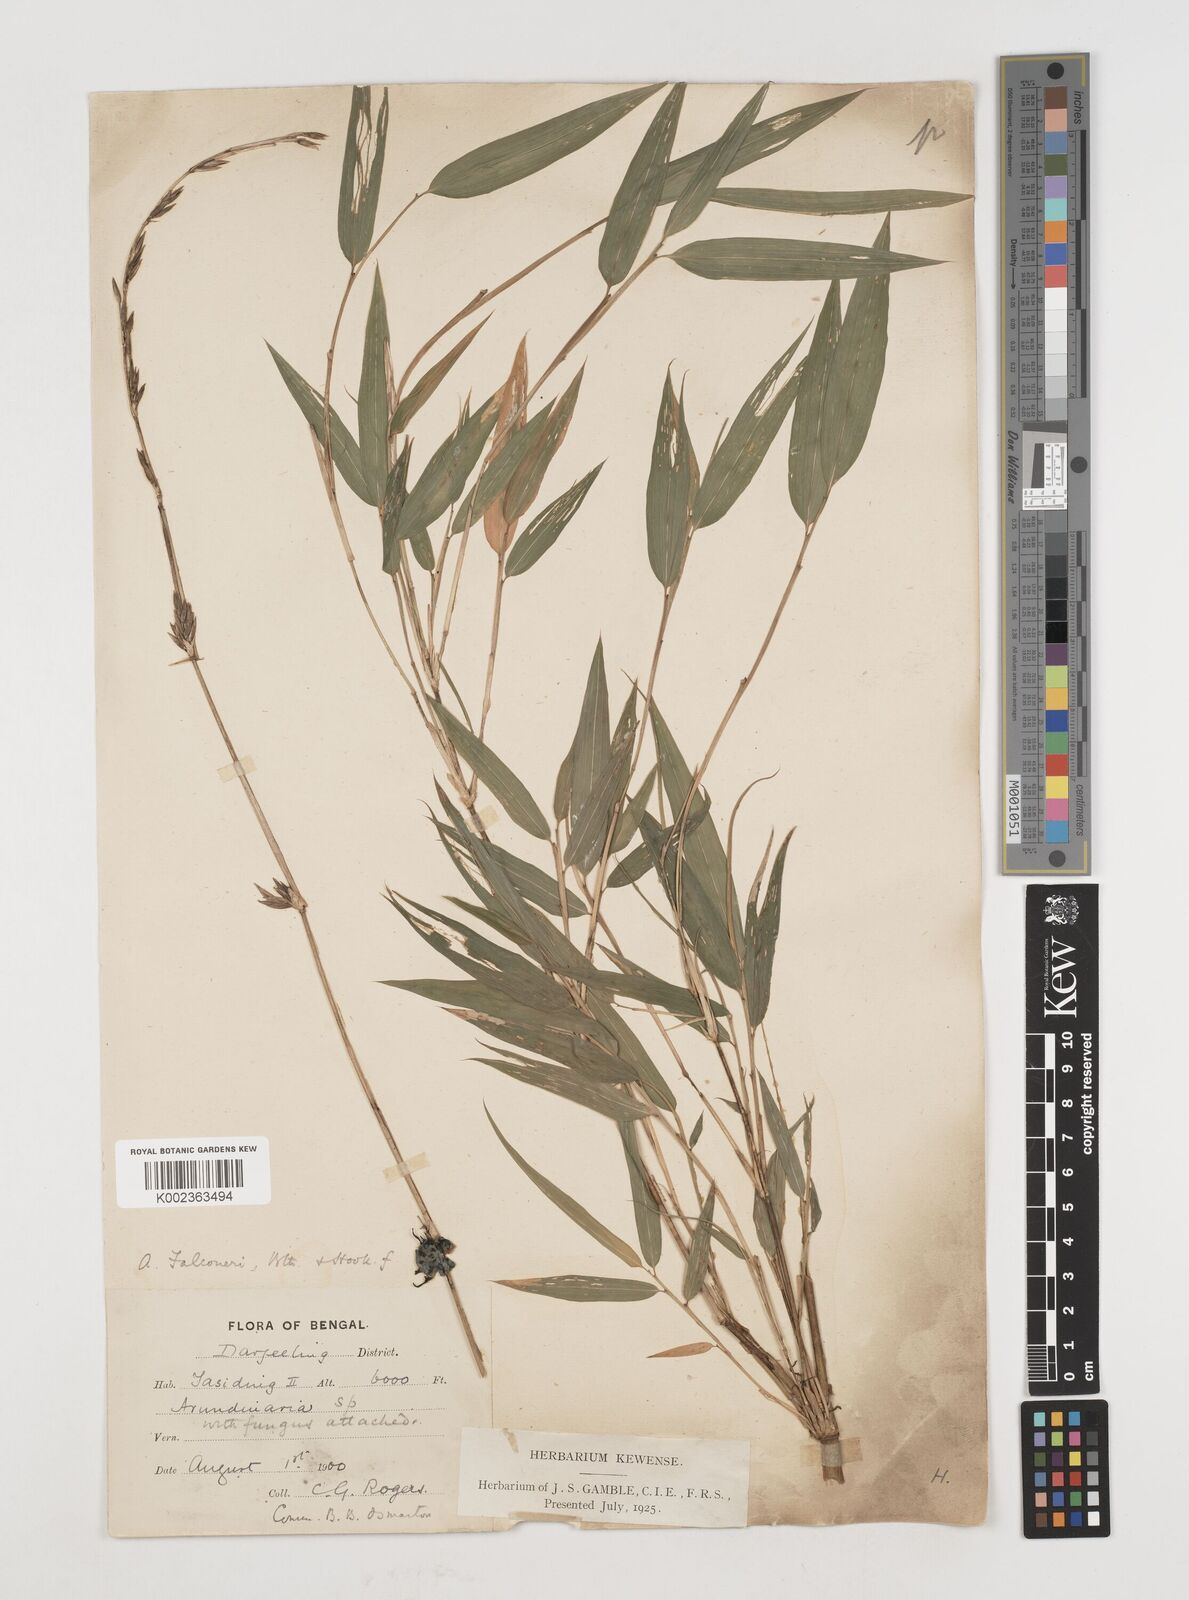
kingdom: Plantae
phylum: Tracheophyta
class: Liliopsida
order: Poales
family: Poaceae
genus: Himalayacalamus
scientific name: Himalayacalamus falconeri
